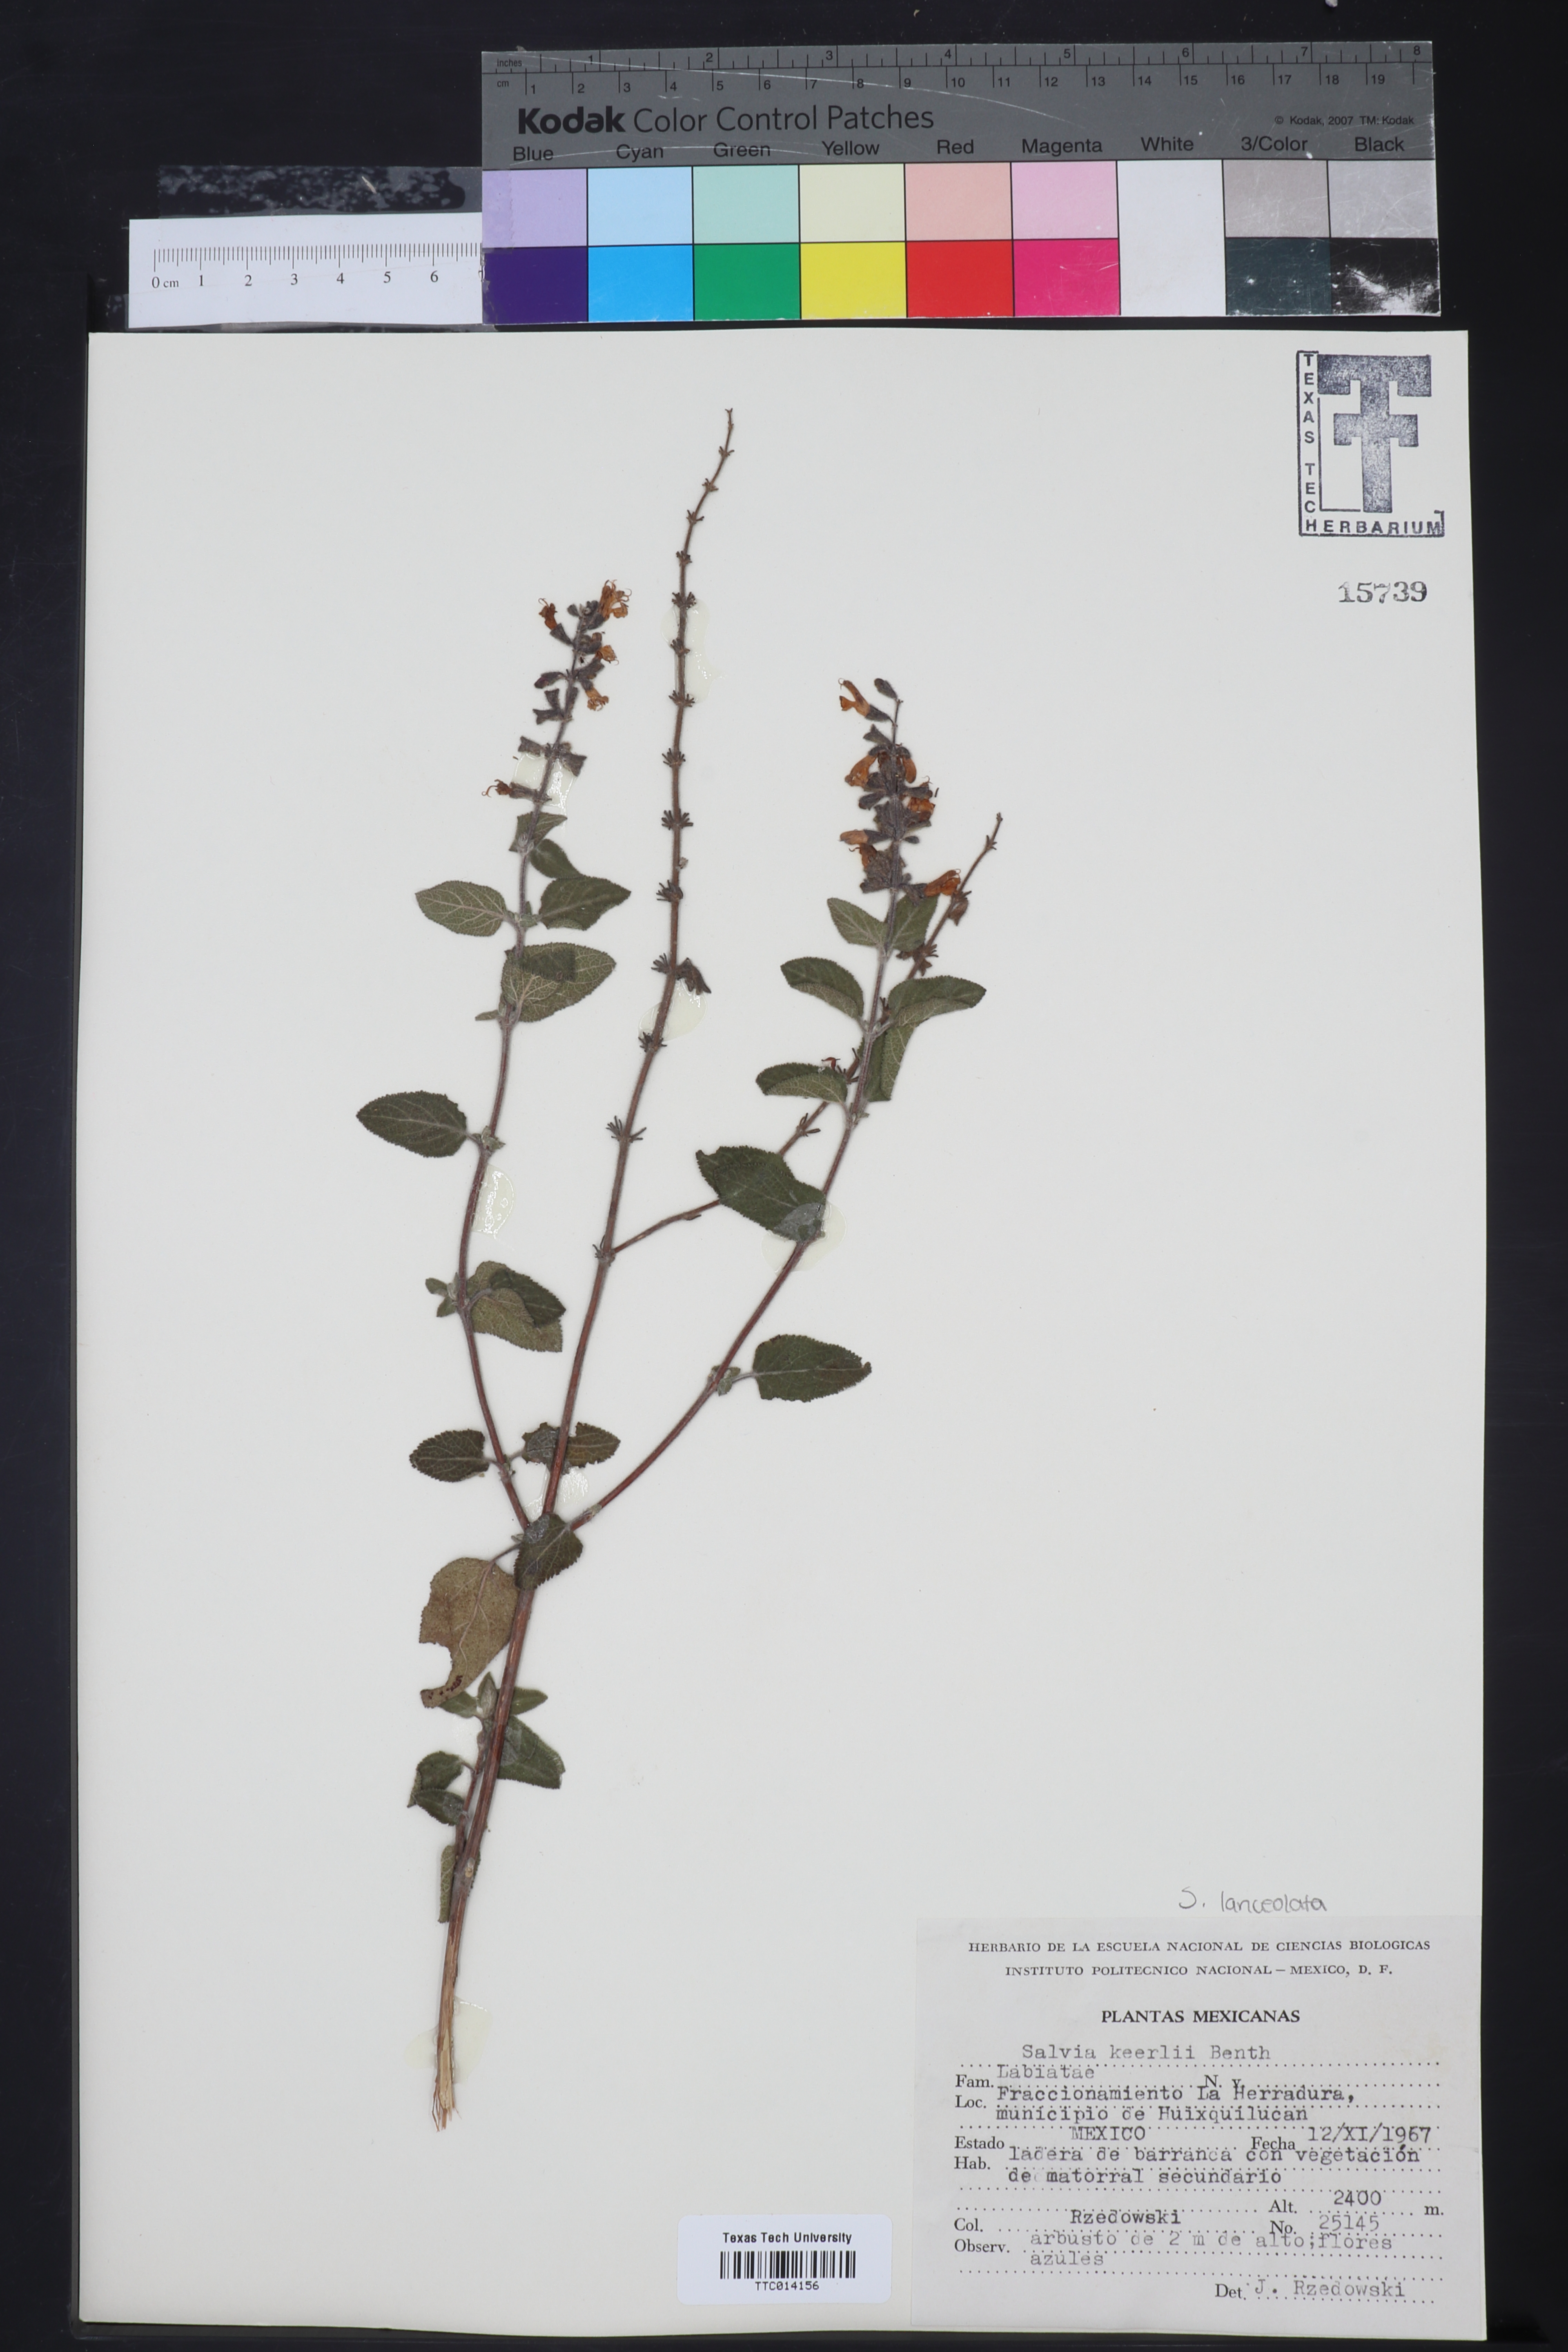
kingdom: Plantae
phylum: Tracheophyta
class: Magnoliopsida
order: Lamiales
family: Lamiaceae
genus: Salvia
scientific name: Salvia keerlii
